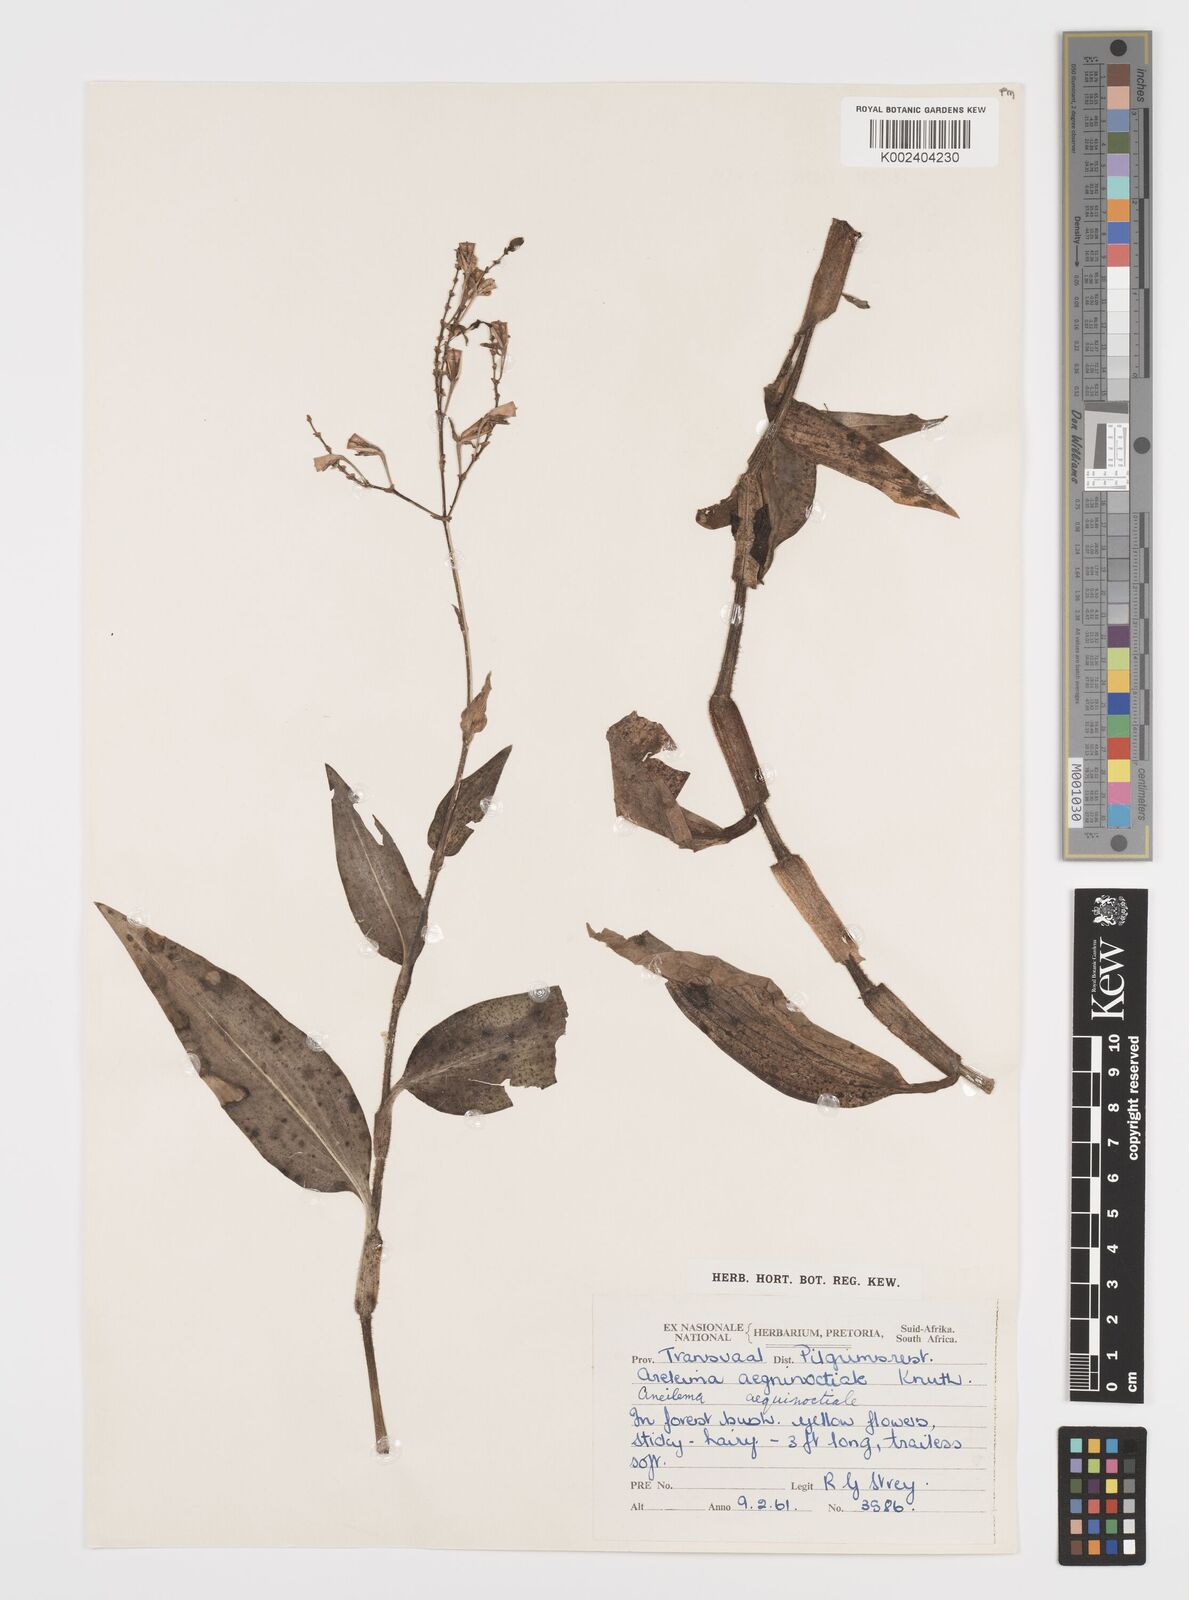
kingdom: Plantae
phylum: Tracheophyta
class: Liliopsida
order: Commelinales
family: Commelinaceae
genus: Aneilema
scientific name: Aneilema aequinoctiale
